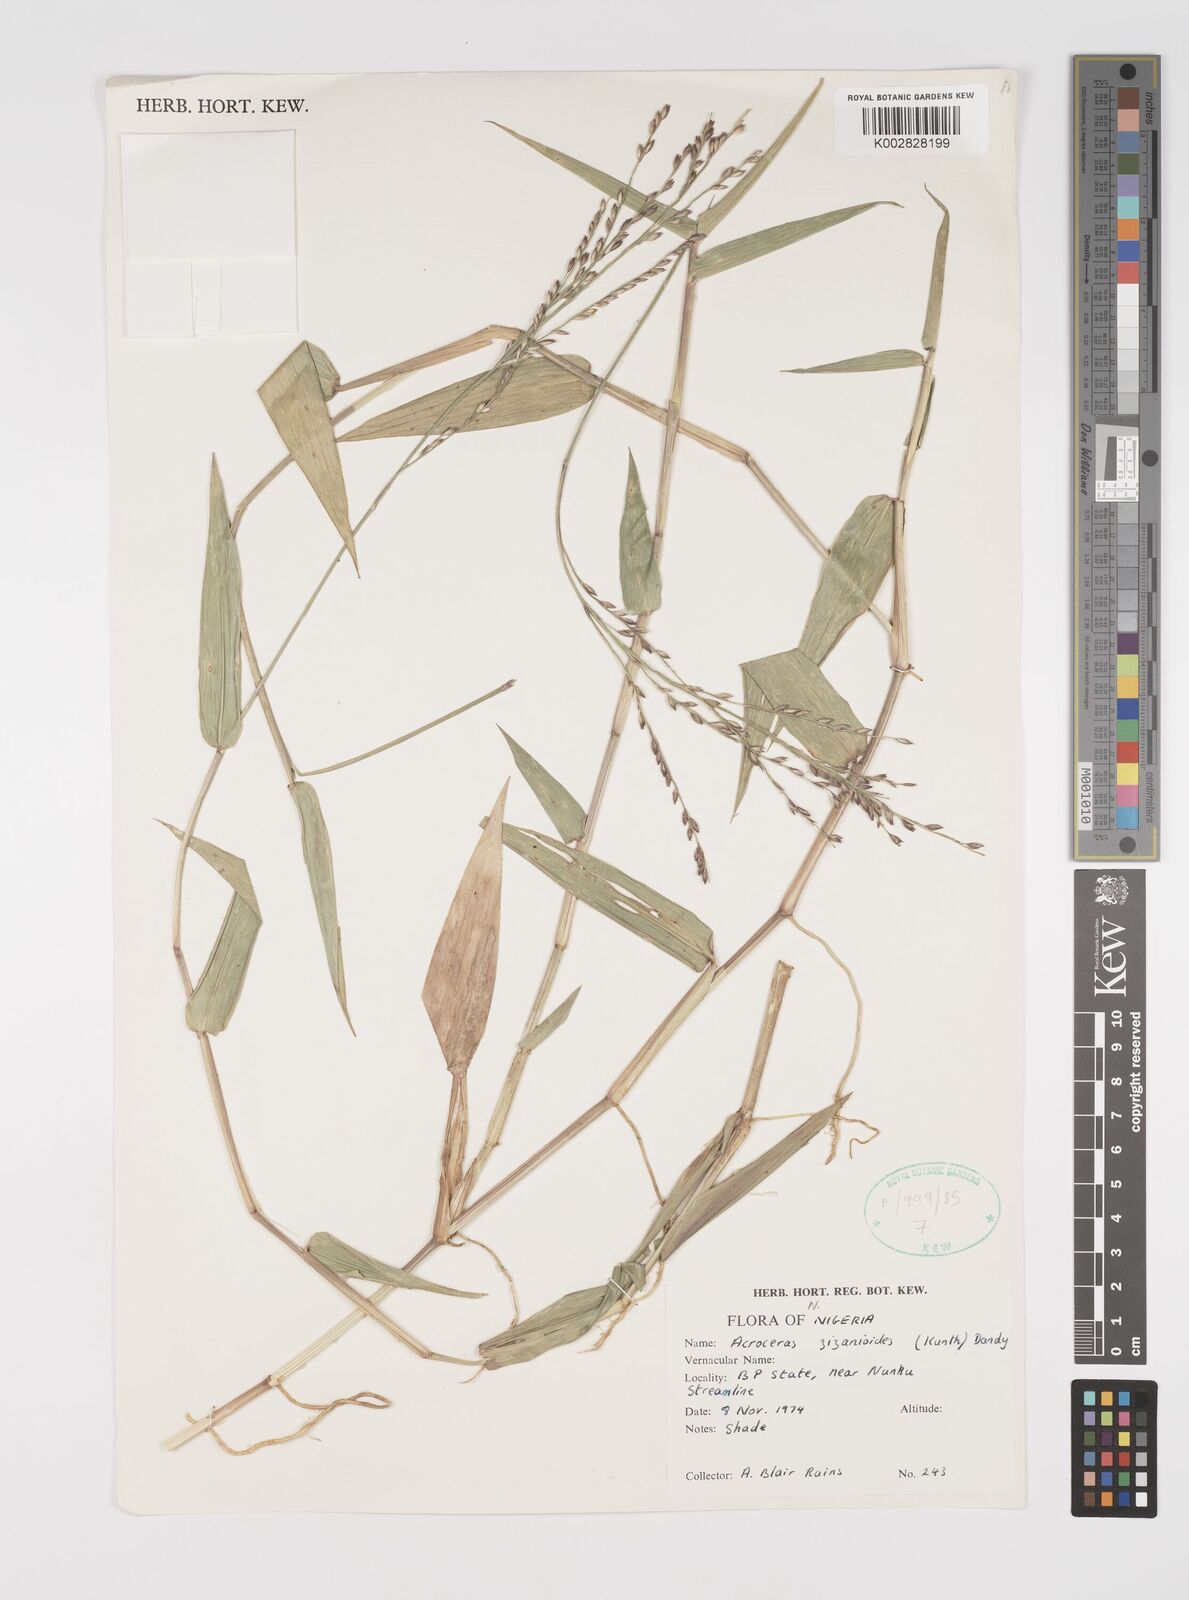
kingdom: Plantae
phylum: Tracheophyta
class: Liliopsida
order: Poales
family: Poaceae
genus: Acroceras
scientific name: Acroceras zizanioides
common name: Oat grass
